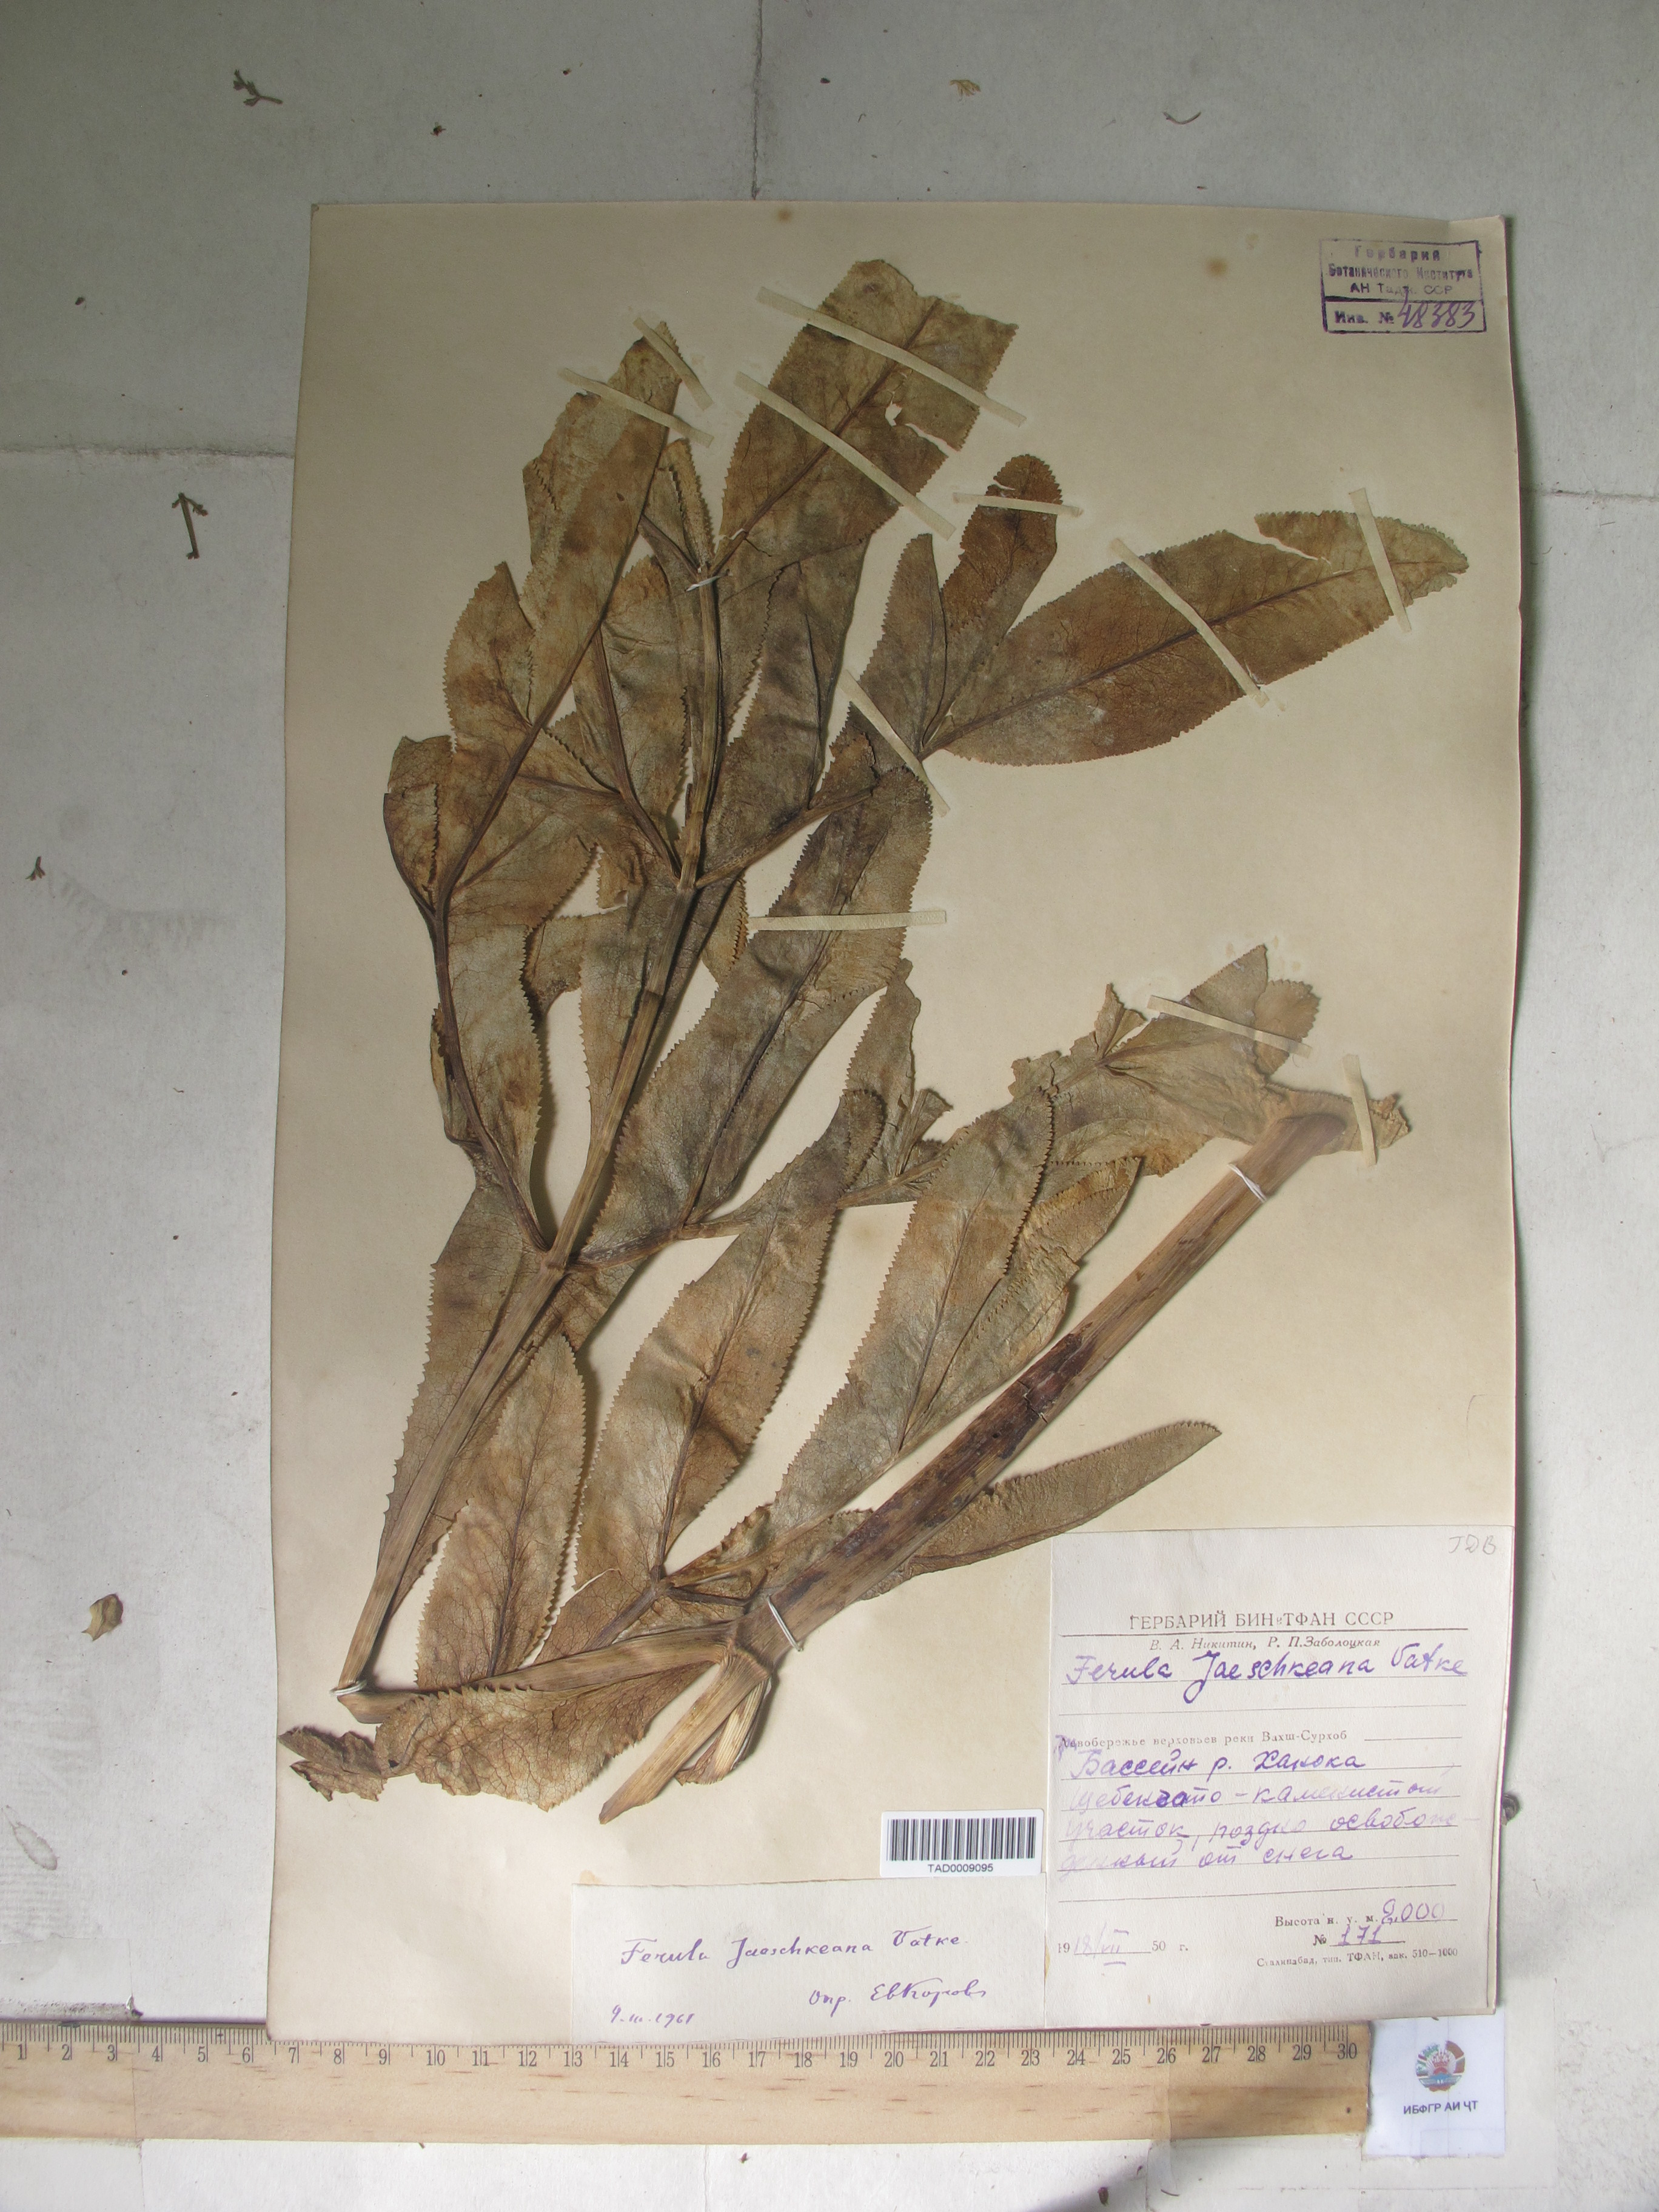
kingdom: Plantae
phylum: Tracheophyta
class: Magnoliopsida
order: Apiales
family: Apiaceae
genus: Ferula
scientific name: Ferula jaeschkeana
